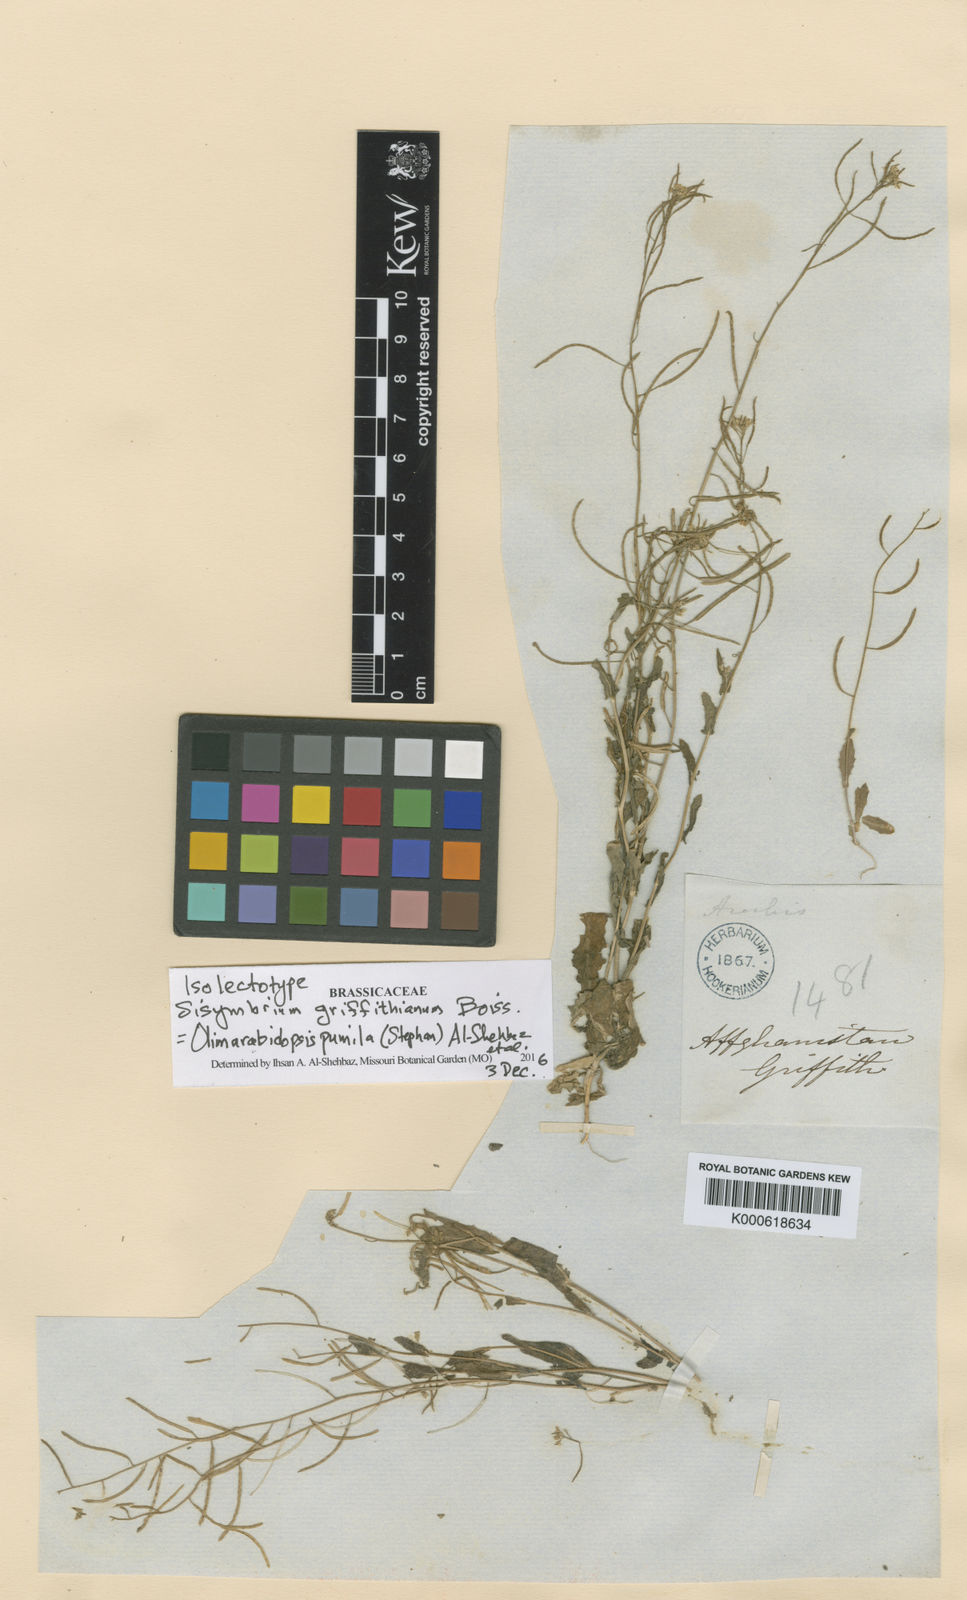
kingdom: Plantae
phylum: Tracheophyta
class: Magnoliopsida
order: Brassicales
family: Brassicaceae
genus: Sisymbrium
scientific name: Sisymbrium pumilum
